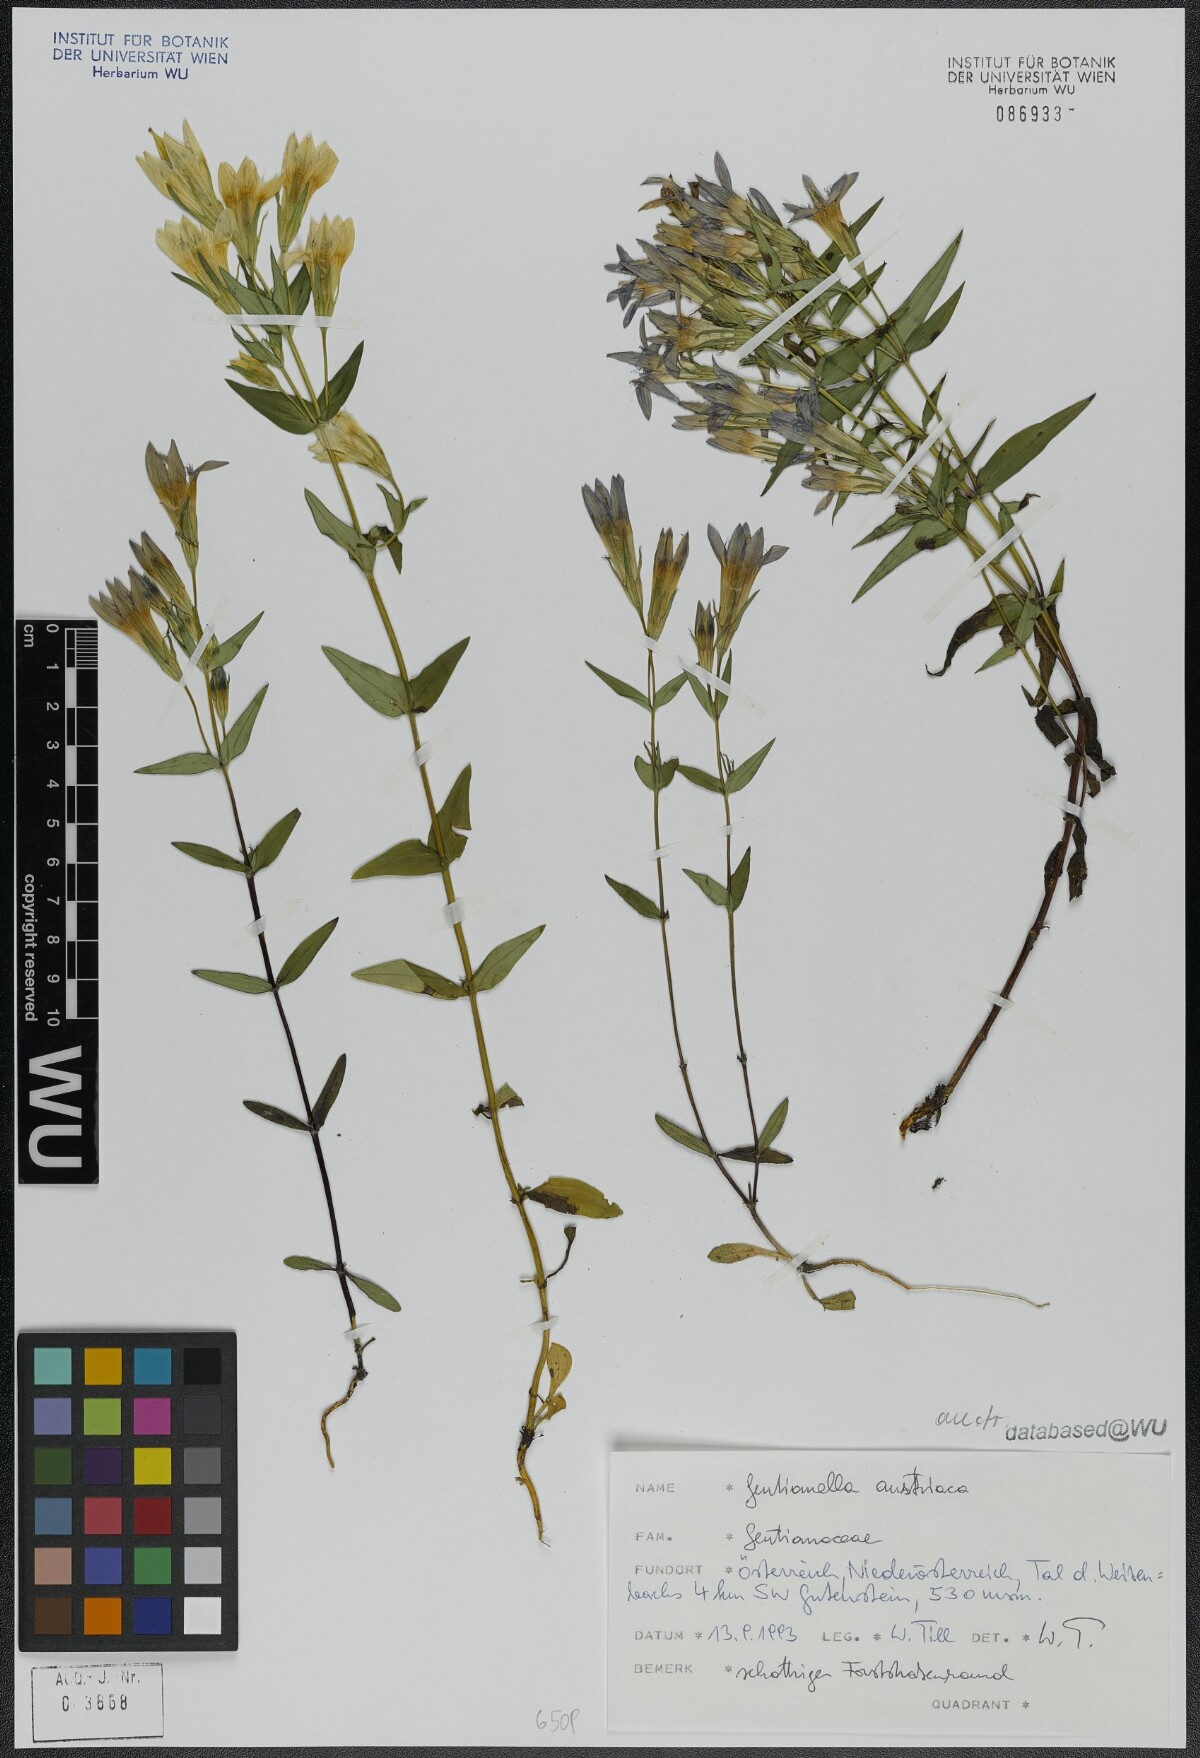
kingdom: Plantae
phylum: Tracheophyta
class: Magnoliopsida
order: Gentianales
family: Gentianaceae
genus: Gentianella
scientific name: Gentianella austriaca
